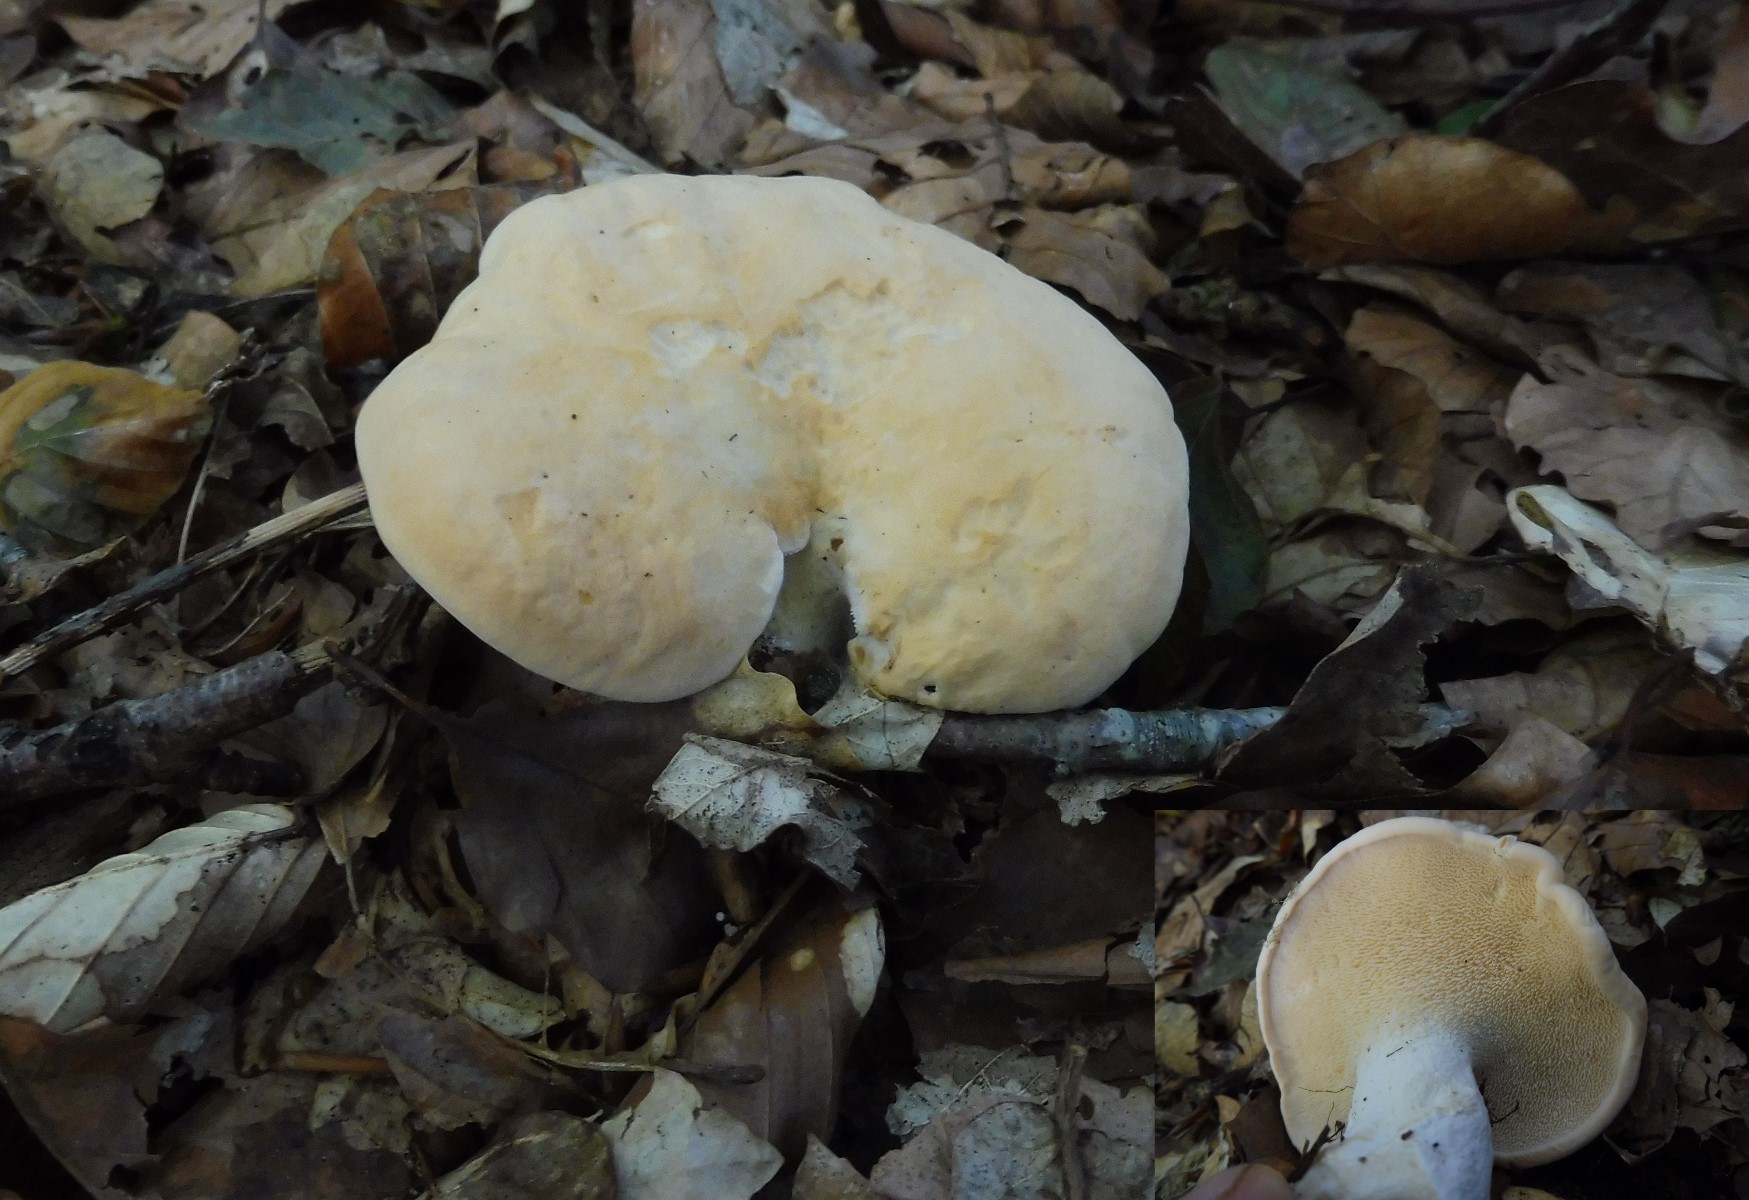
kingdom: Fungi
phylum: Basidiomycota
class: Agaricomycetes
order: Cantharellales
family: Hydnaceae
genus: Hydnum
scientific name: Hydnum repandum
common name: almindelig pigsvamp
